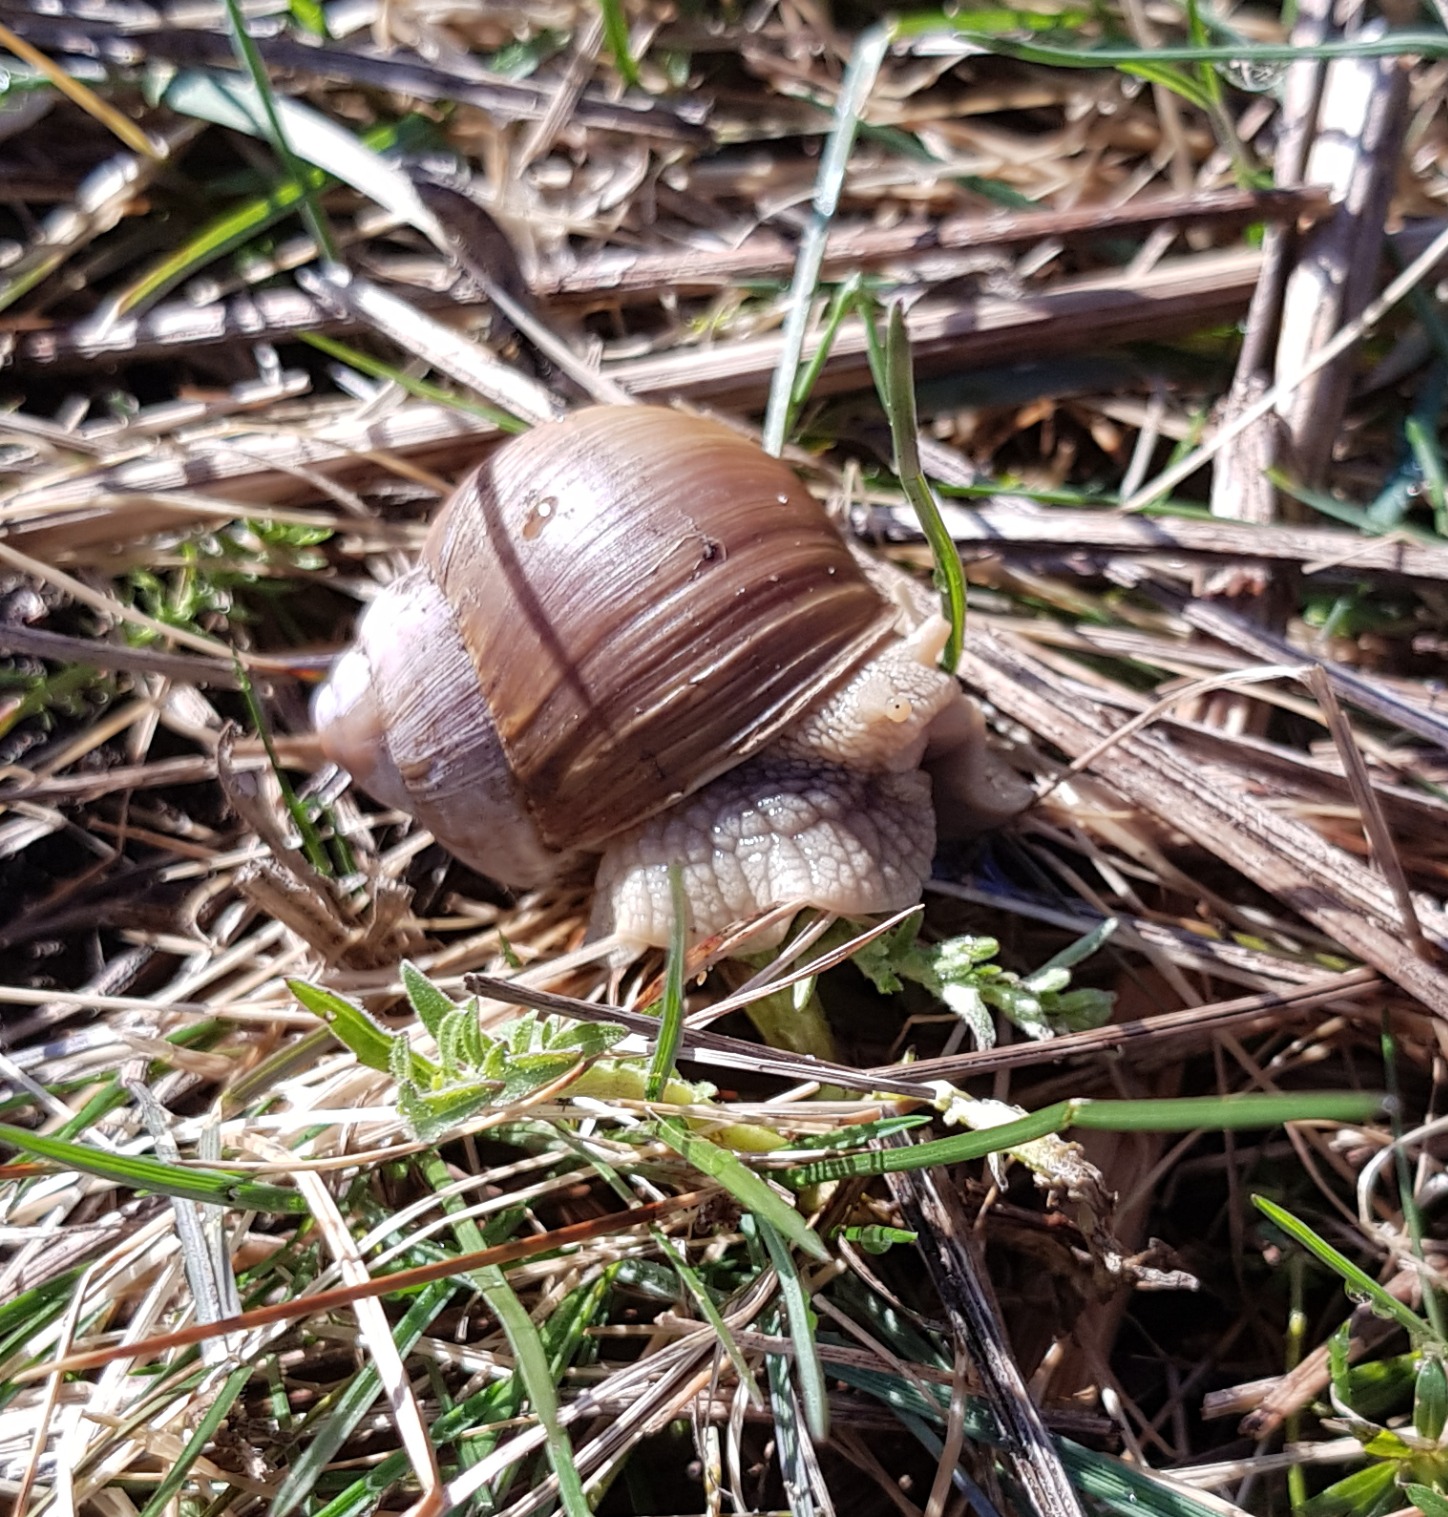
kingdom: Animalia
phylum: Mollusca
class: Gastropoda
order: Stylommatophora
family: Helicidae
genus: Helix
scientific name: Helix pomatia
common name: Vinbjergsnegl
